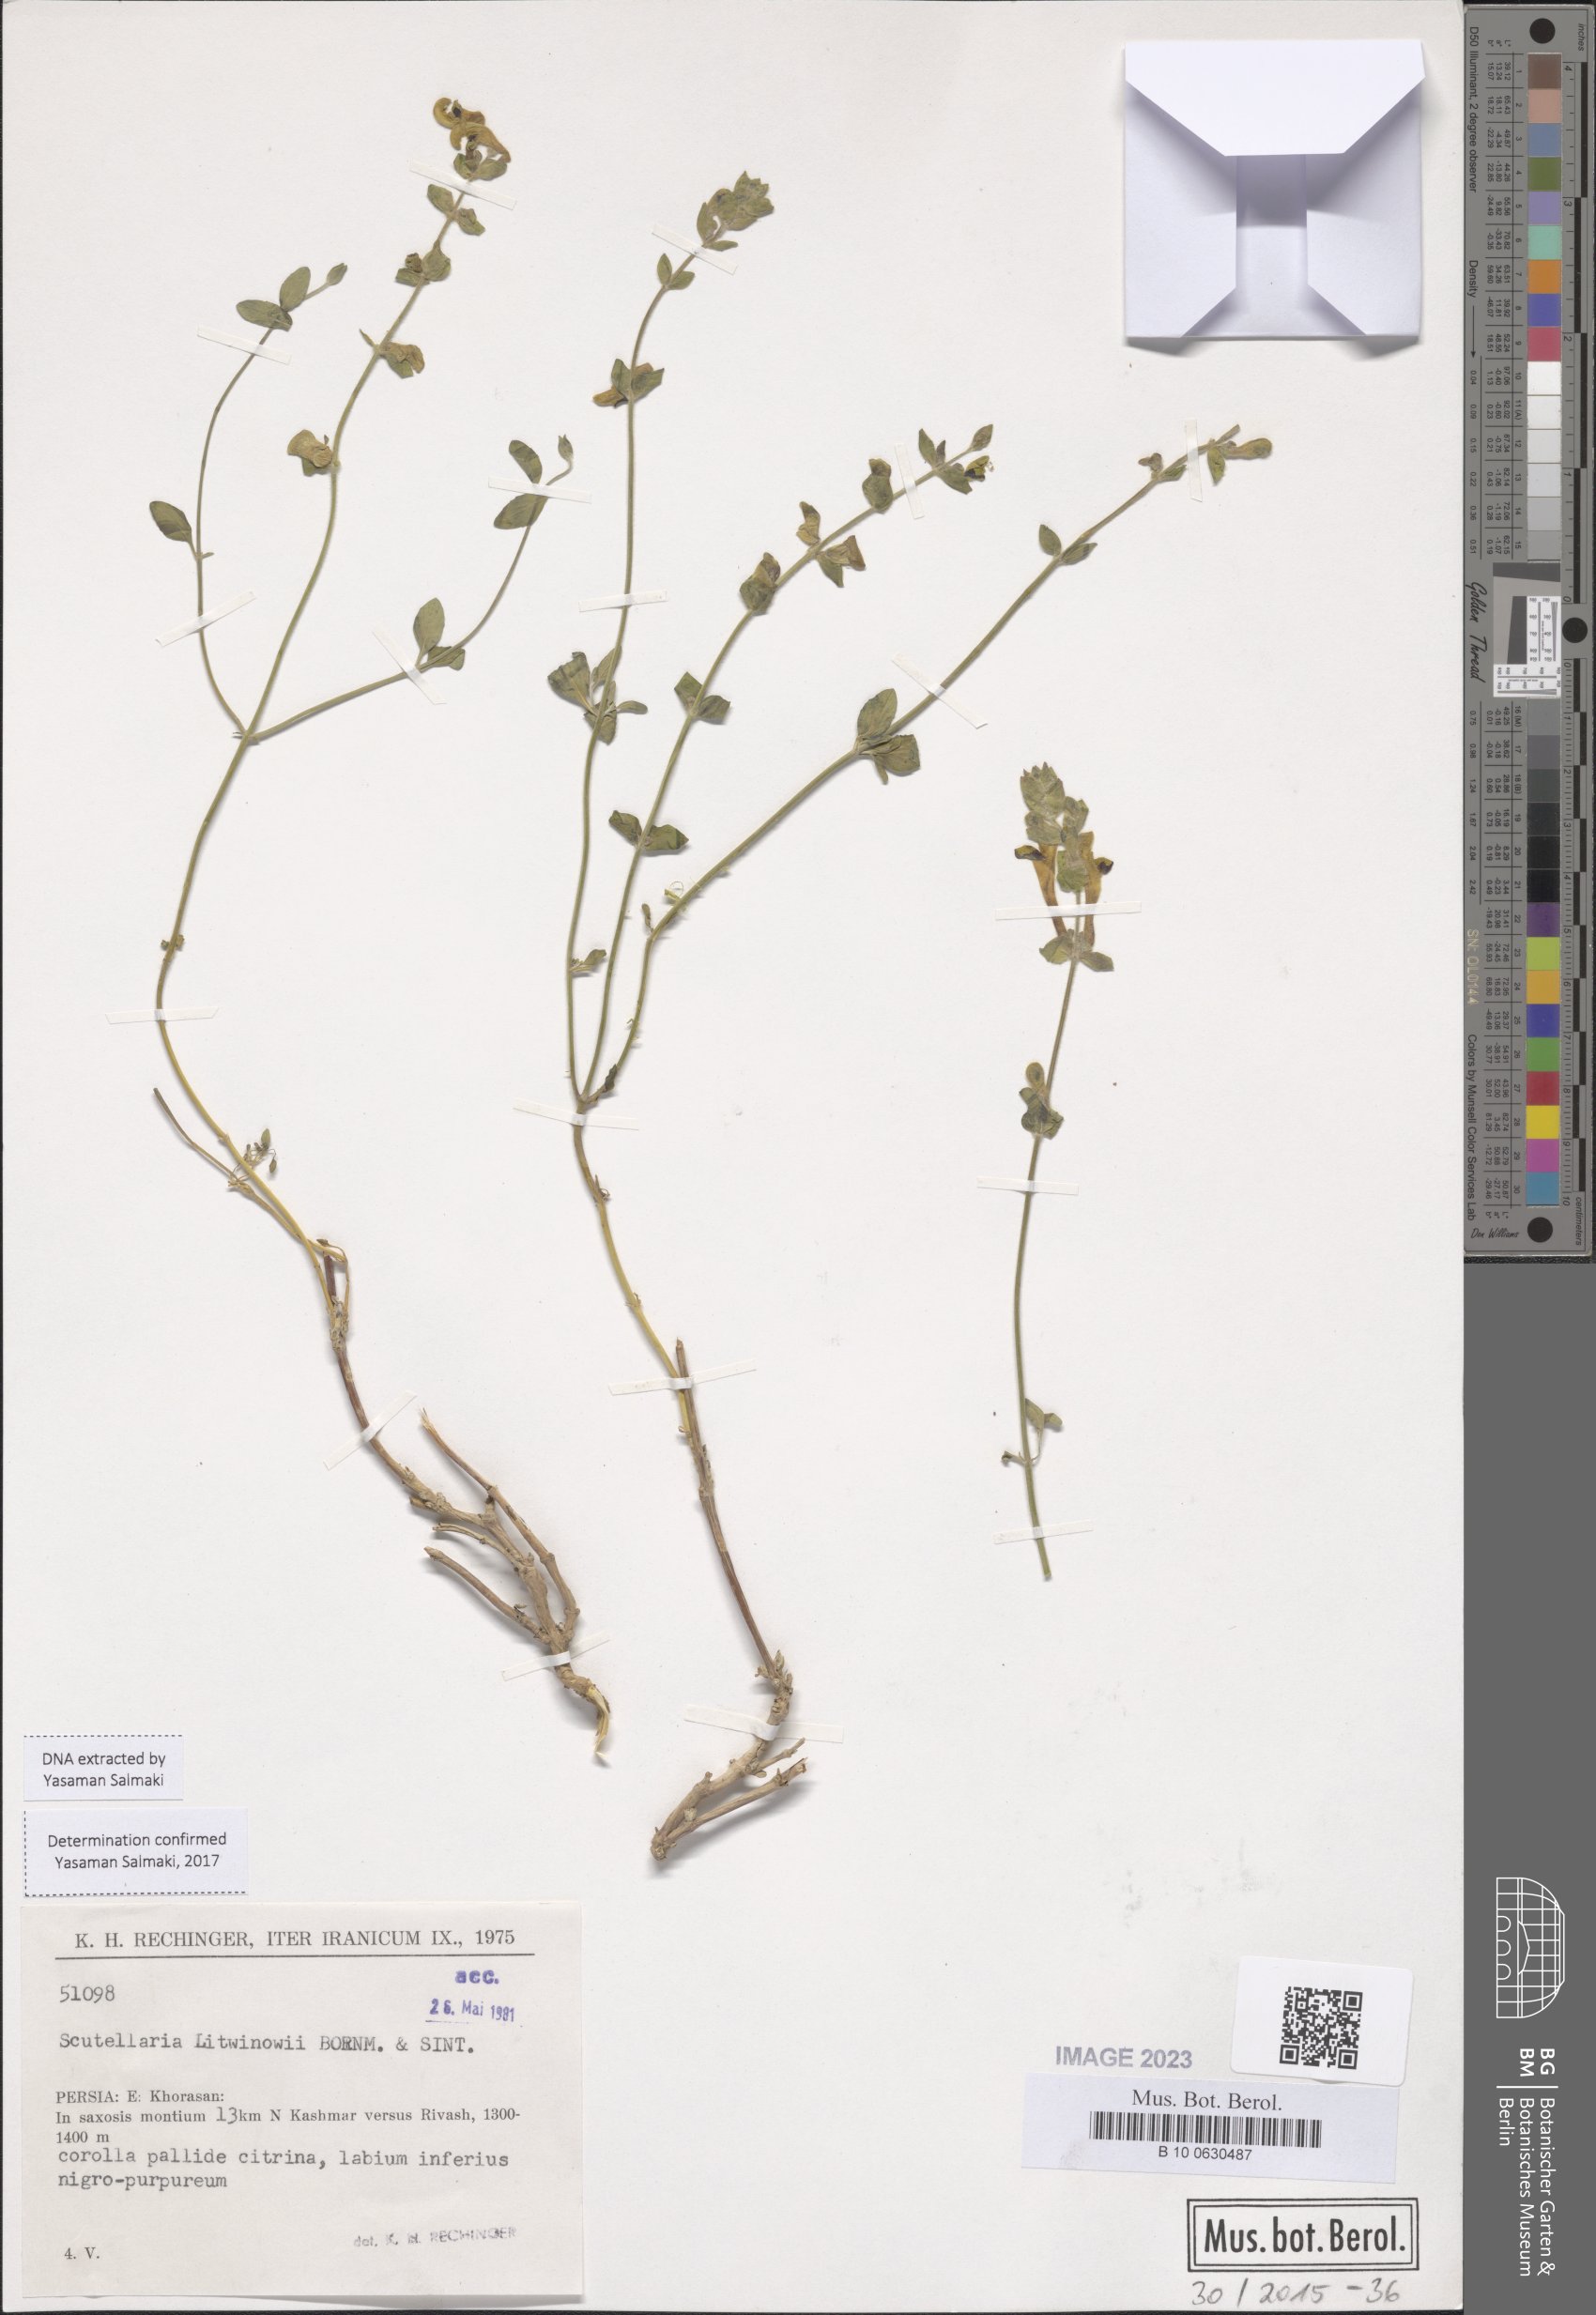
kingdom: Plantae
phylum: Tracheophyta
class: Magnoliopsida
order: Lamiales
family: Lamiaceae
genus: Scutellaria
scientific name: Scutellaria litwinowii
